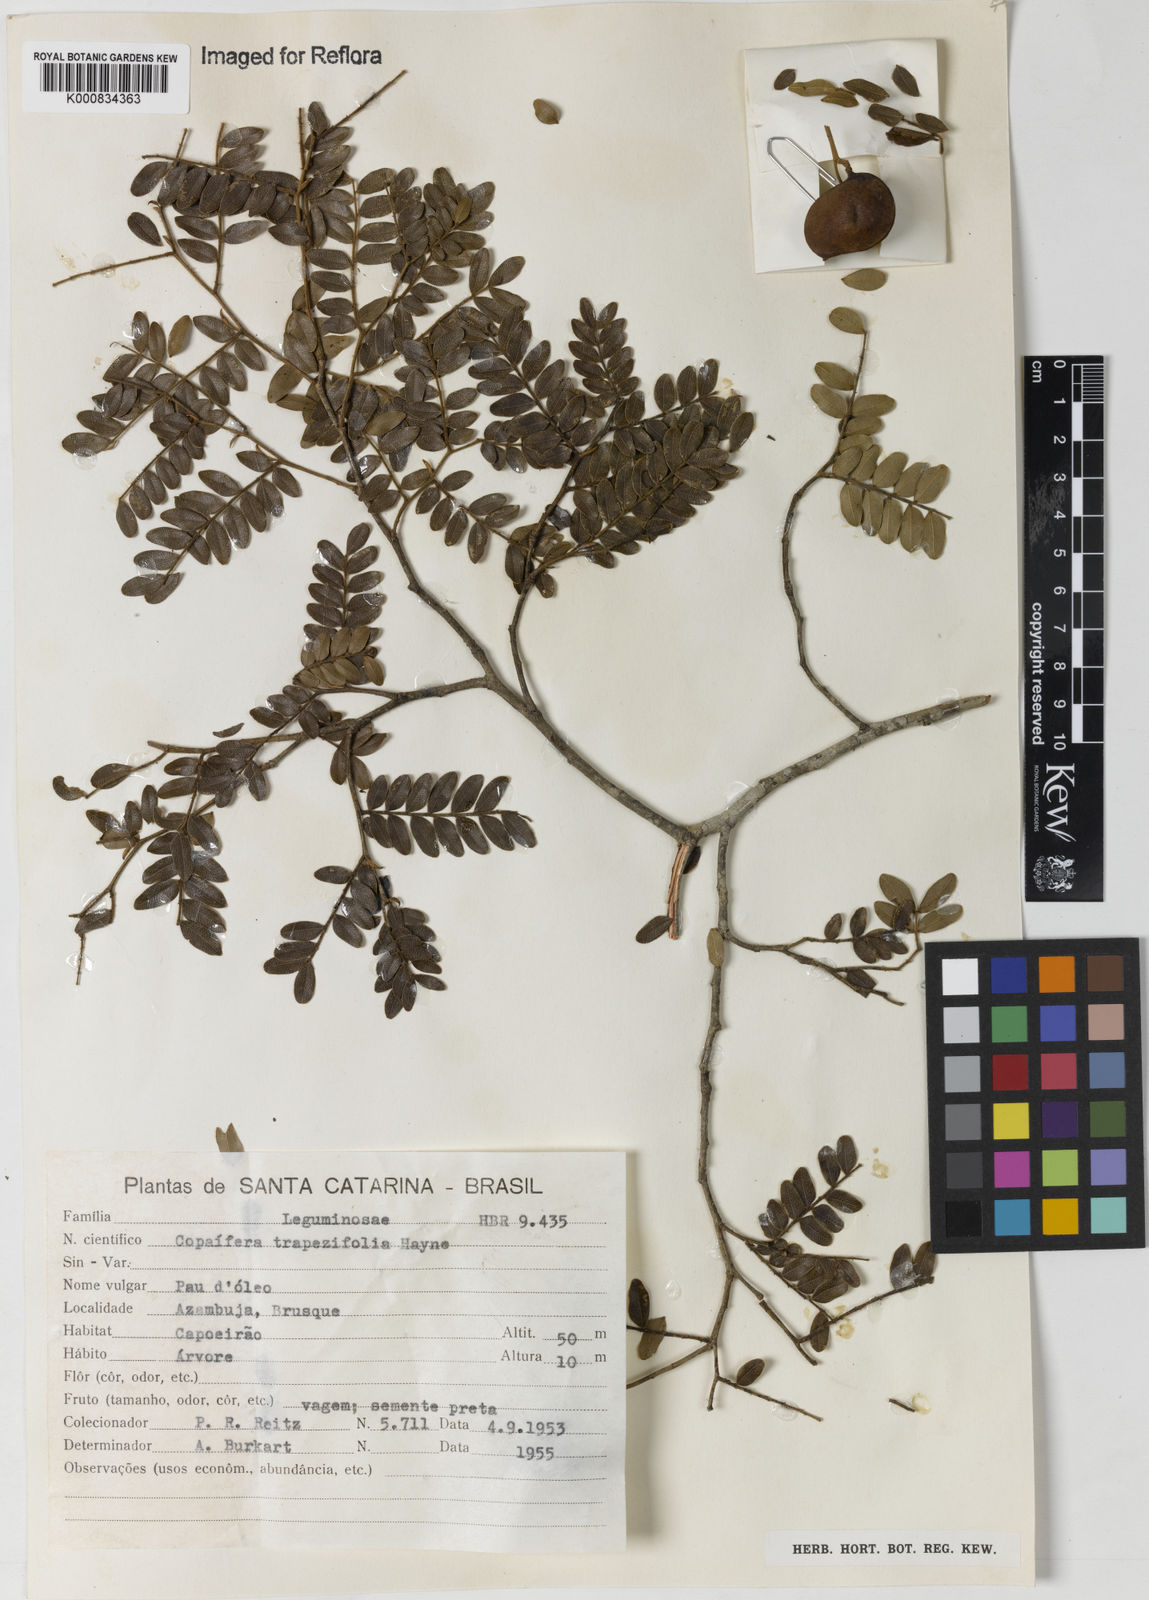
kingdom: Plantae
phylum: Tracheophyta
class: Magnoliopsida
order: Fabales
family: Fabaceae
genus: Copaifera
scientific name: Copaifera trapezifolia
